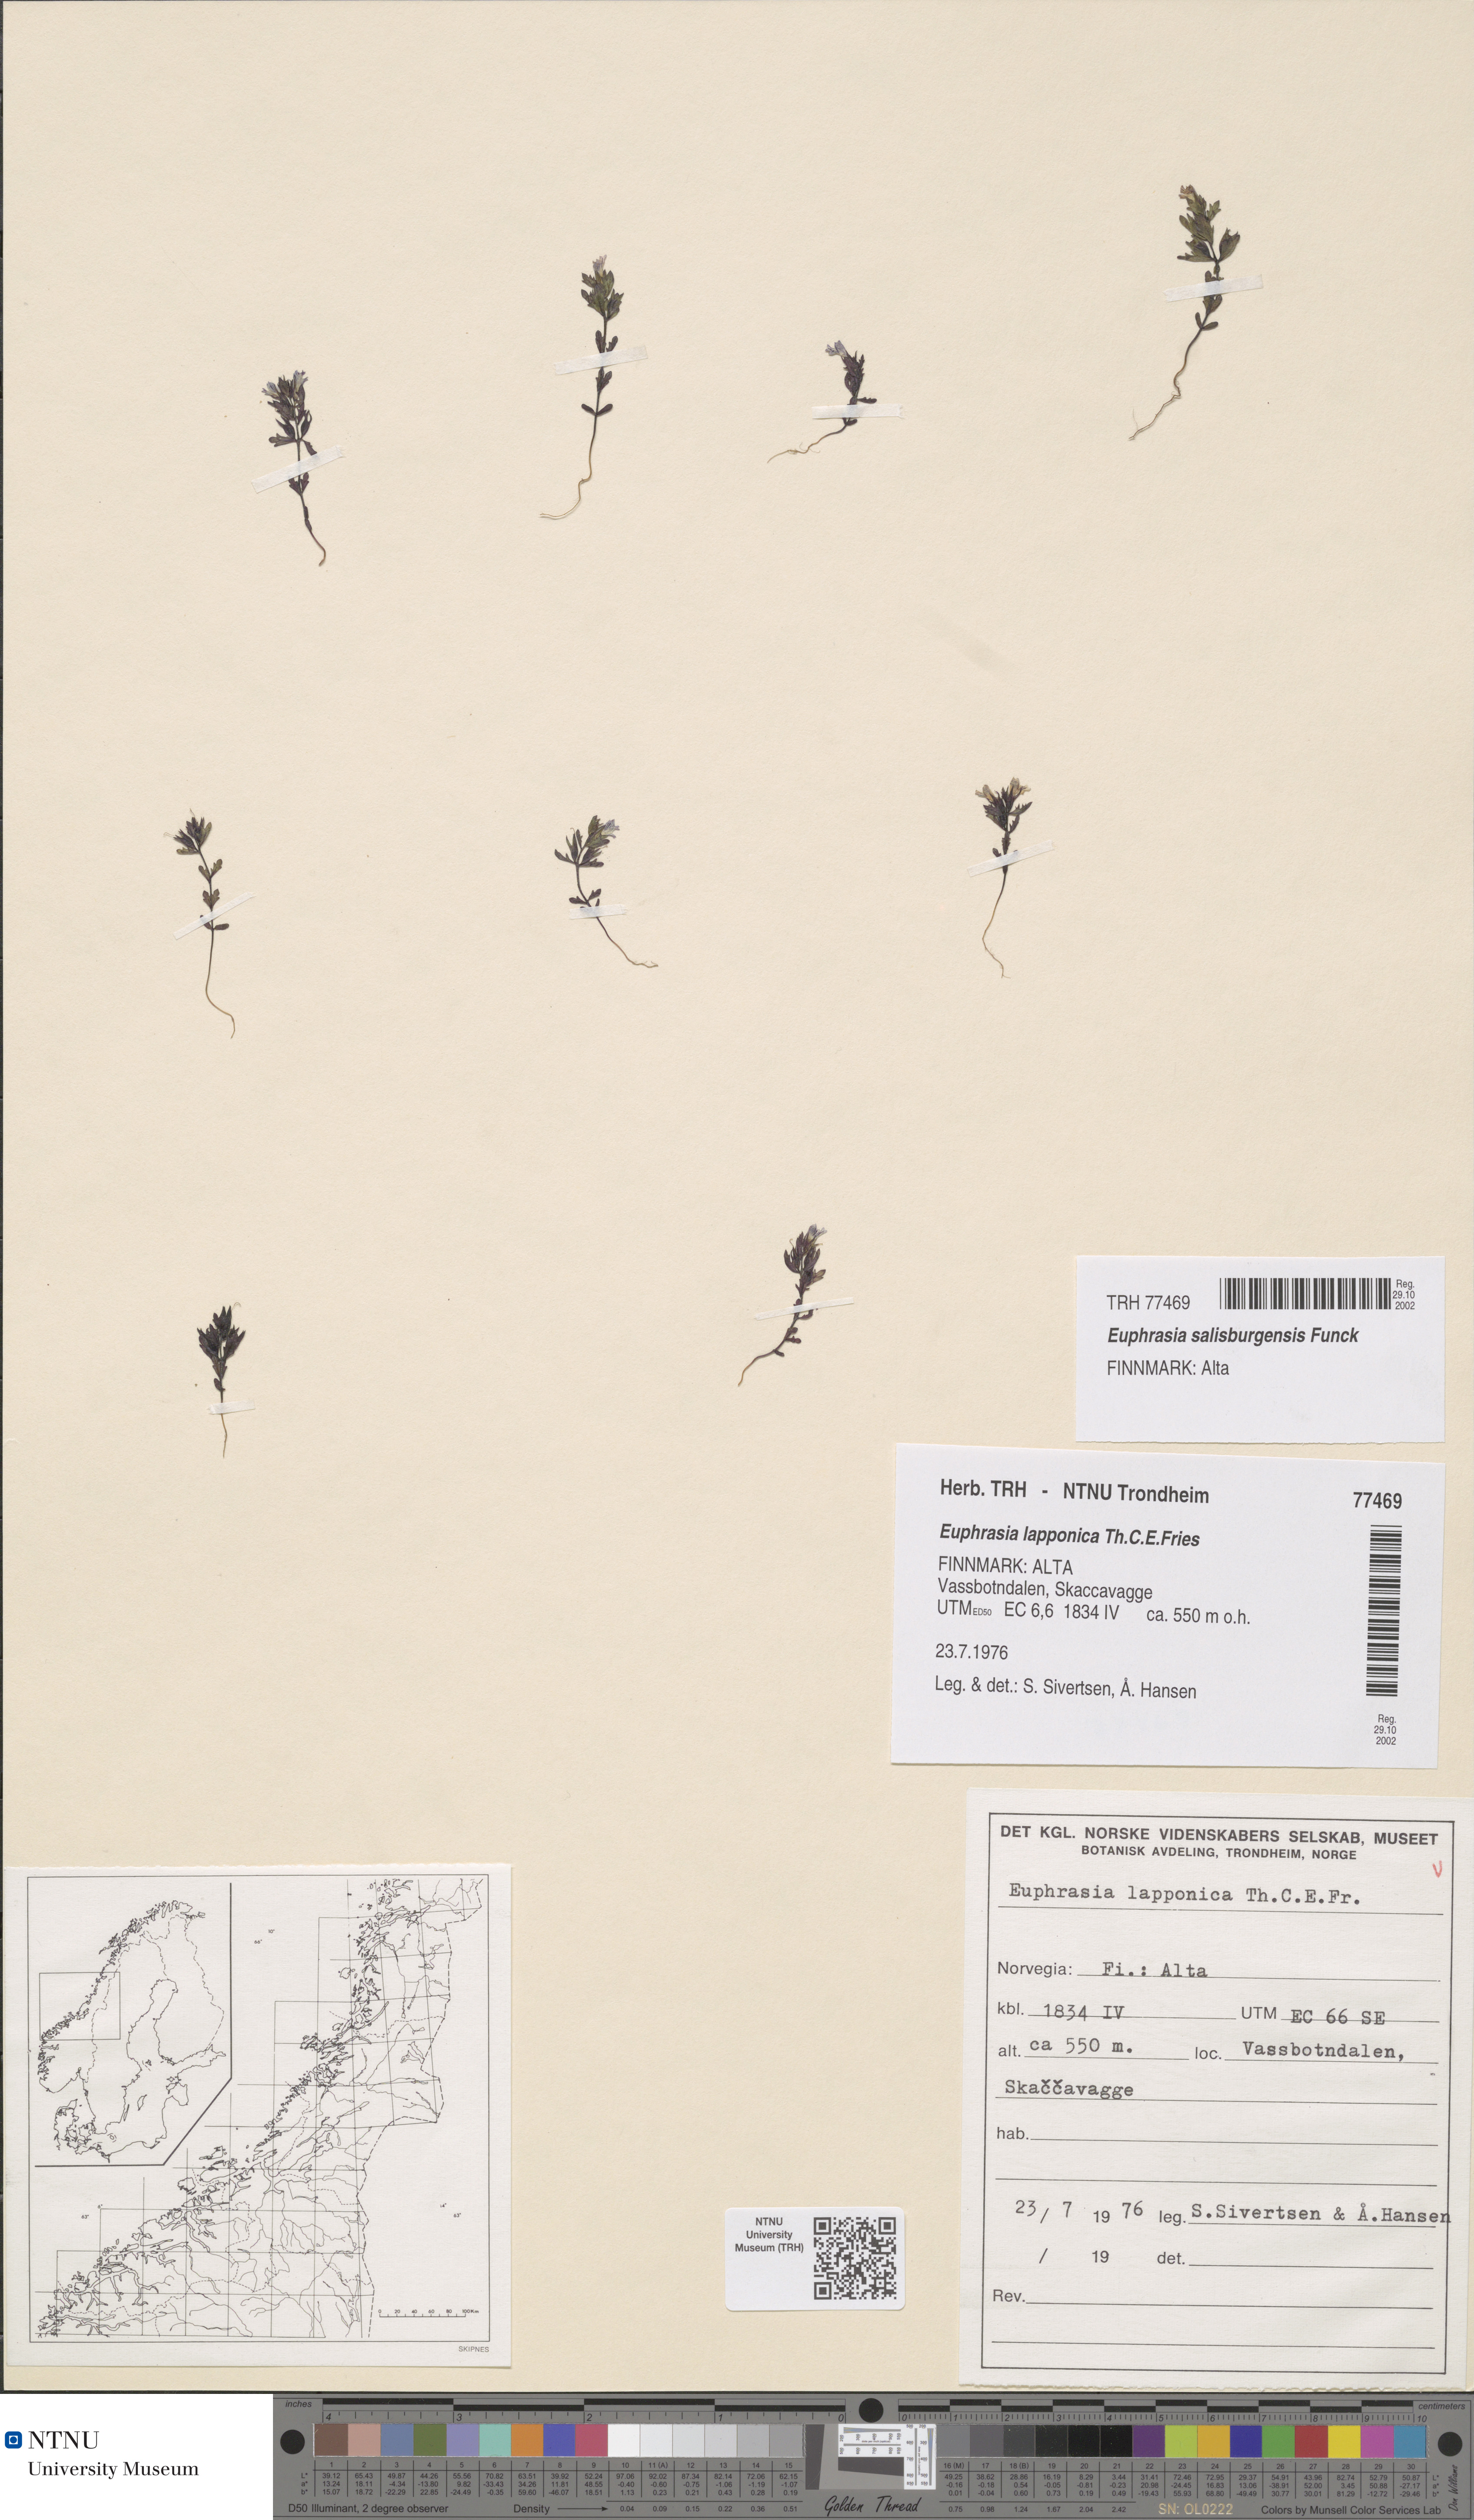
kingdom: Plantae
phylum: Tracheophyta
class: Magnoliopsida
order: Lamiales
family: Orobanchaceae
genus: Euphrasia
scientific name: Euphrasia salisburgensis
